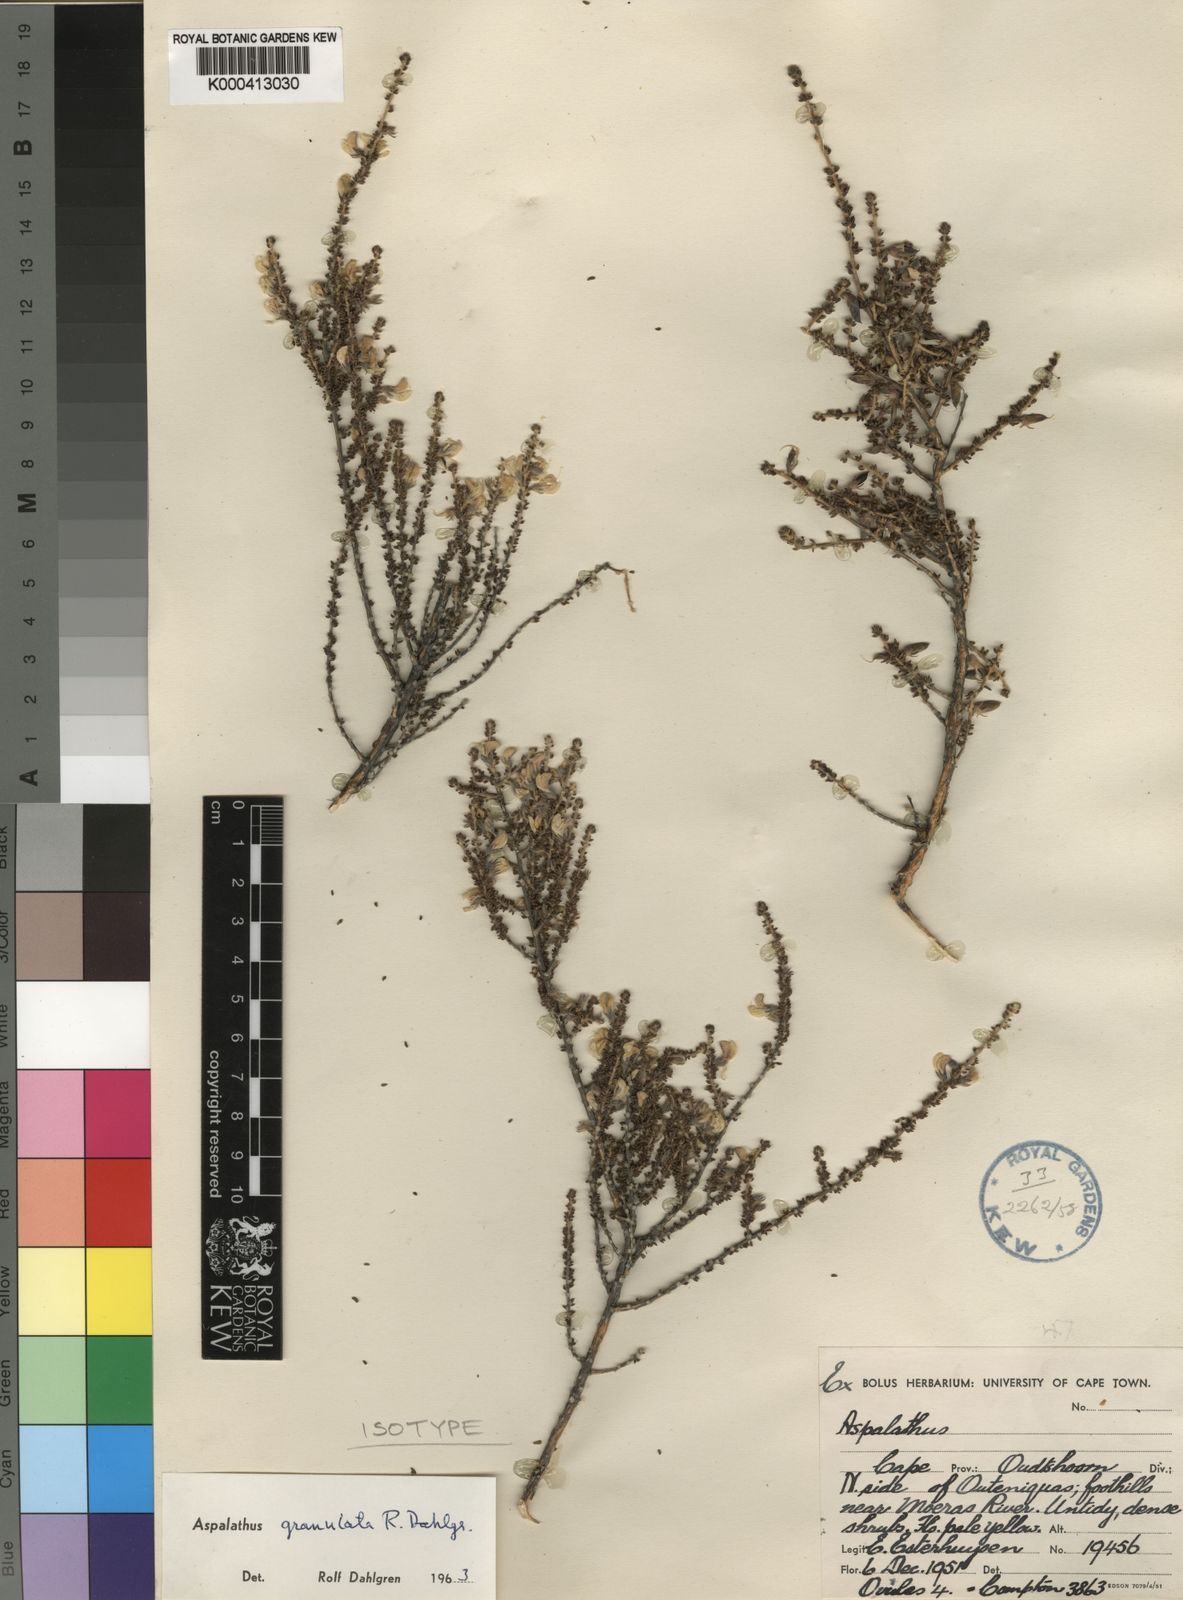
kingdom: Plantae
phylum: Tracheophyta
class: Magnoliopsida
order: Fabales
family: Fabaceae
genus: Aspalathus
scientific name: Aspalathus granulata
